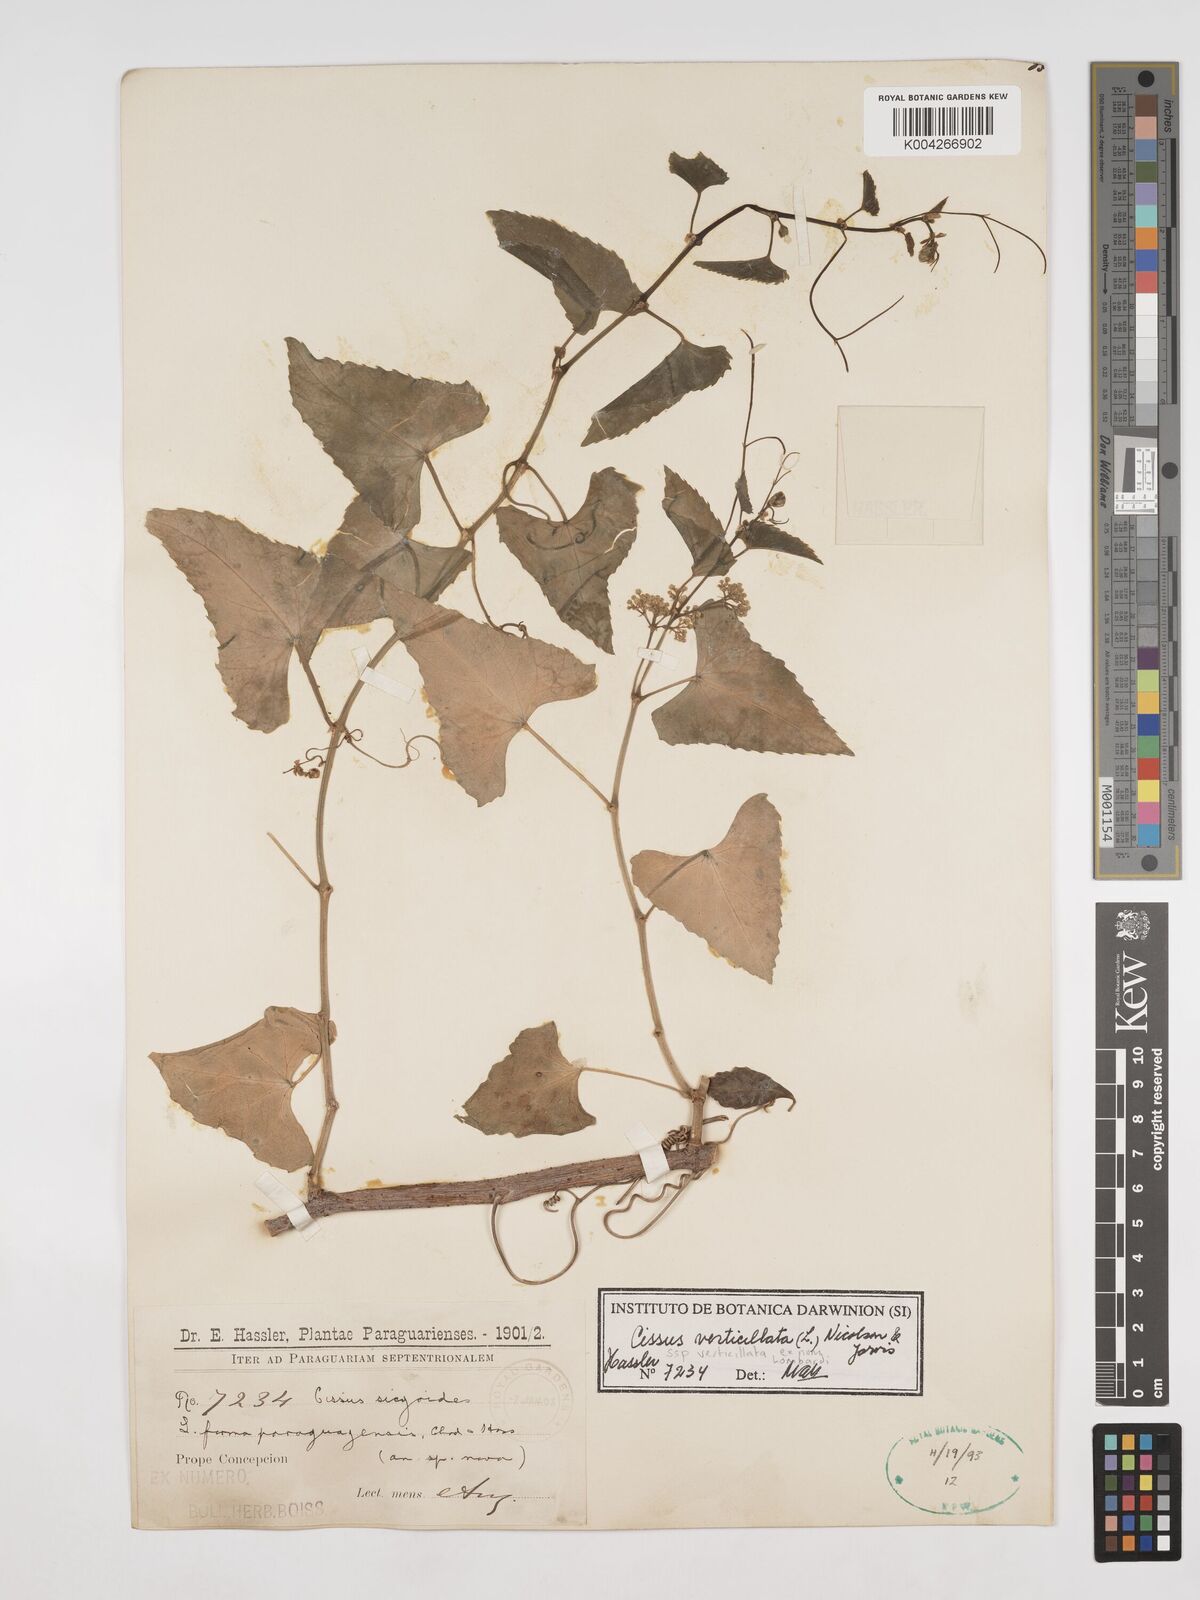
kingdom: Plantae
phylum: Tracheophyta
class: Magnoliopsida
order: Vitales
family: Vitaceae
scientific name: Vitaceae
